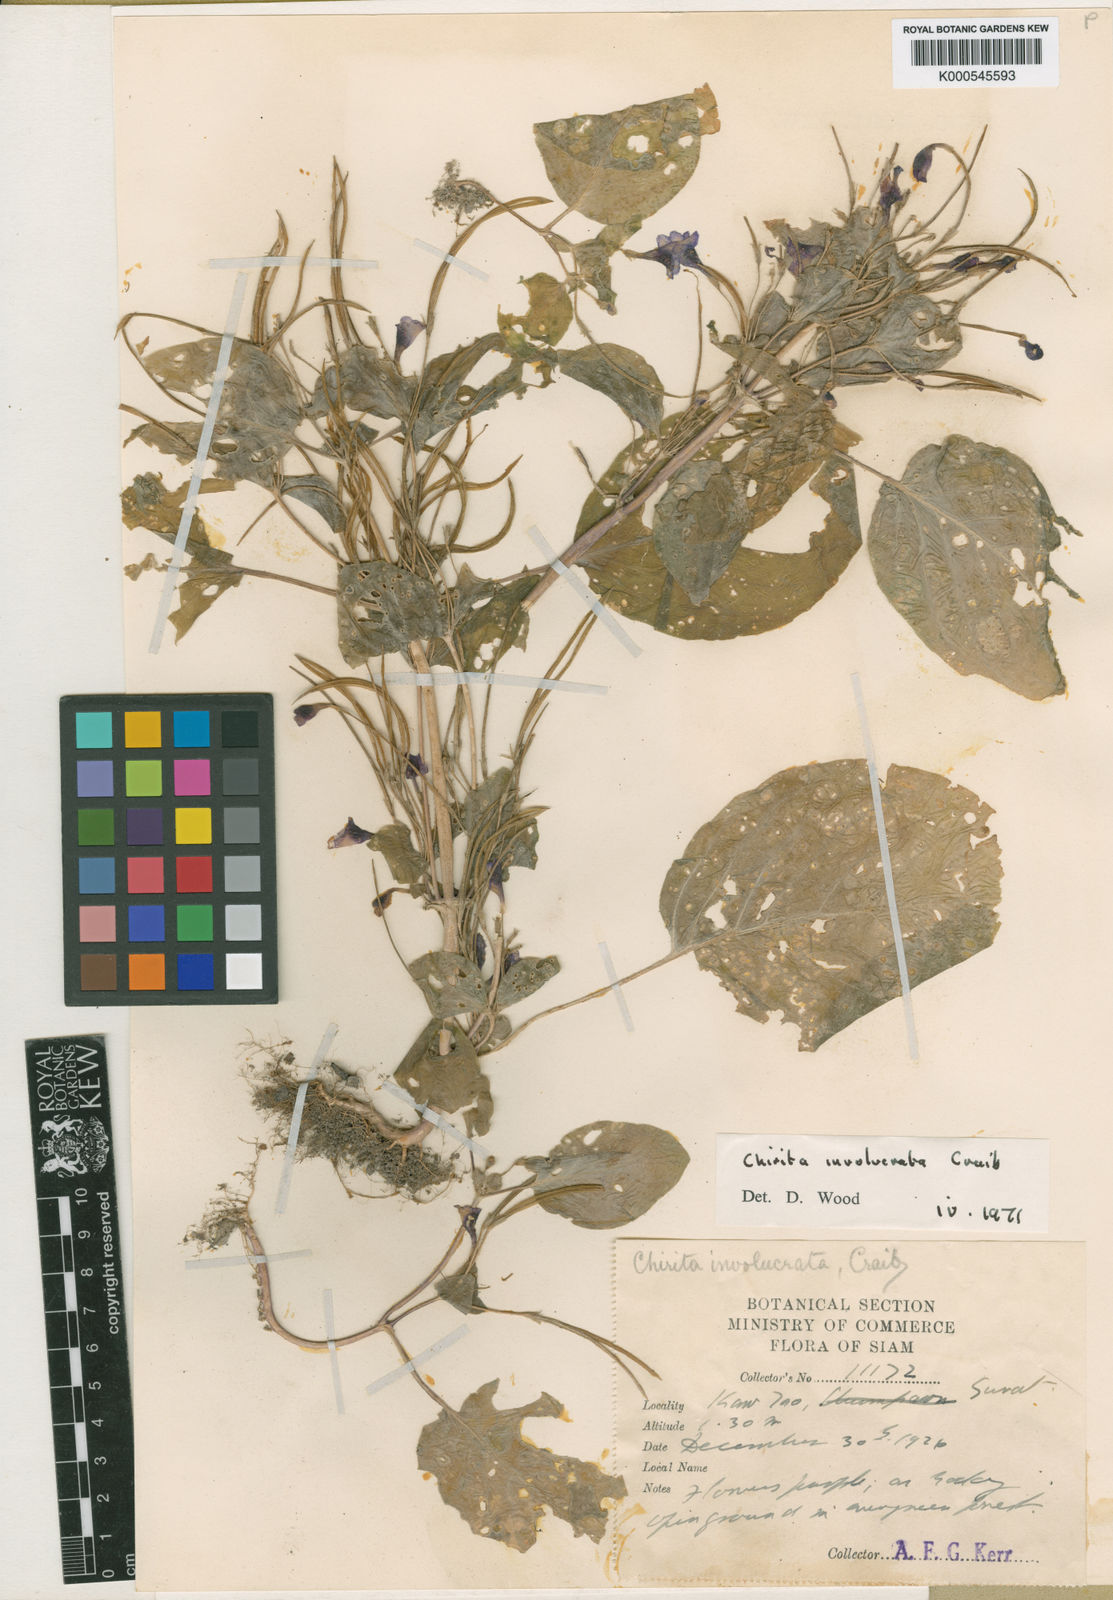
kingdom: Plantae
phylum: Tracheophyta
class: Magnoliopsida
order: Lamiales
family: Gesneriaceae
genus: Microchirita
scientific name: Microchirita involucrata
